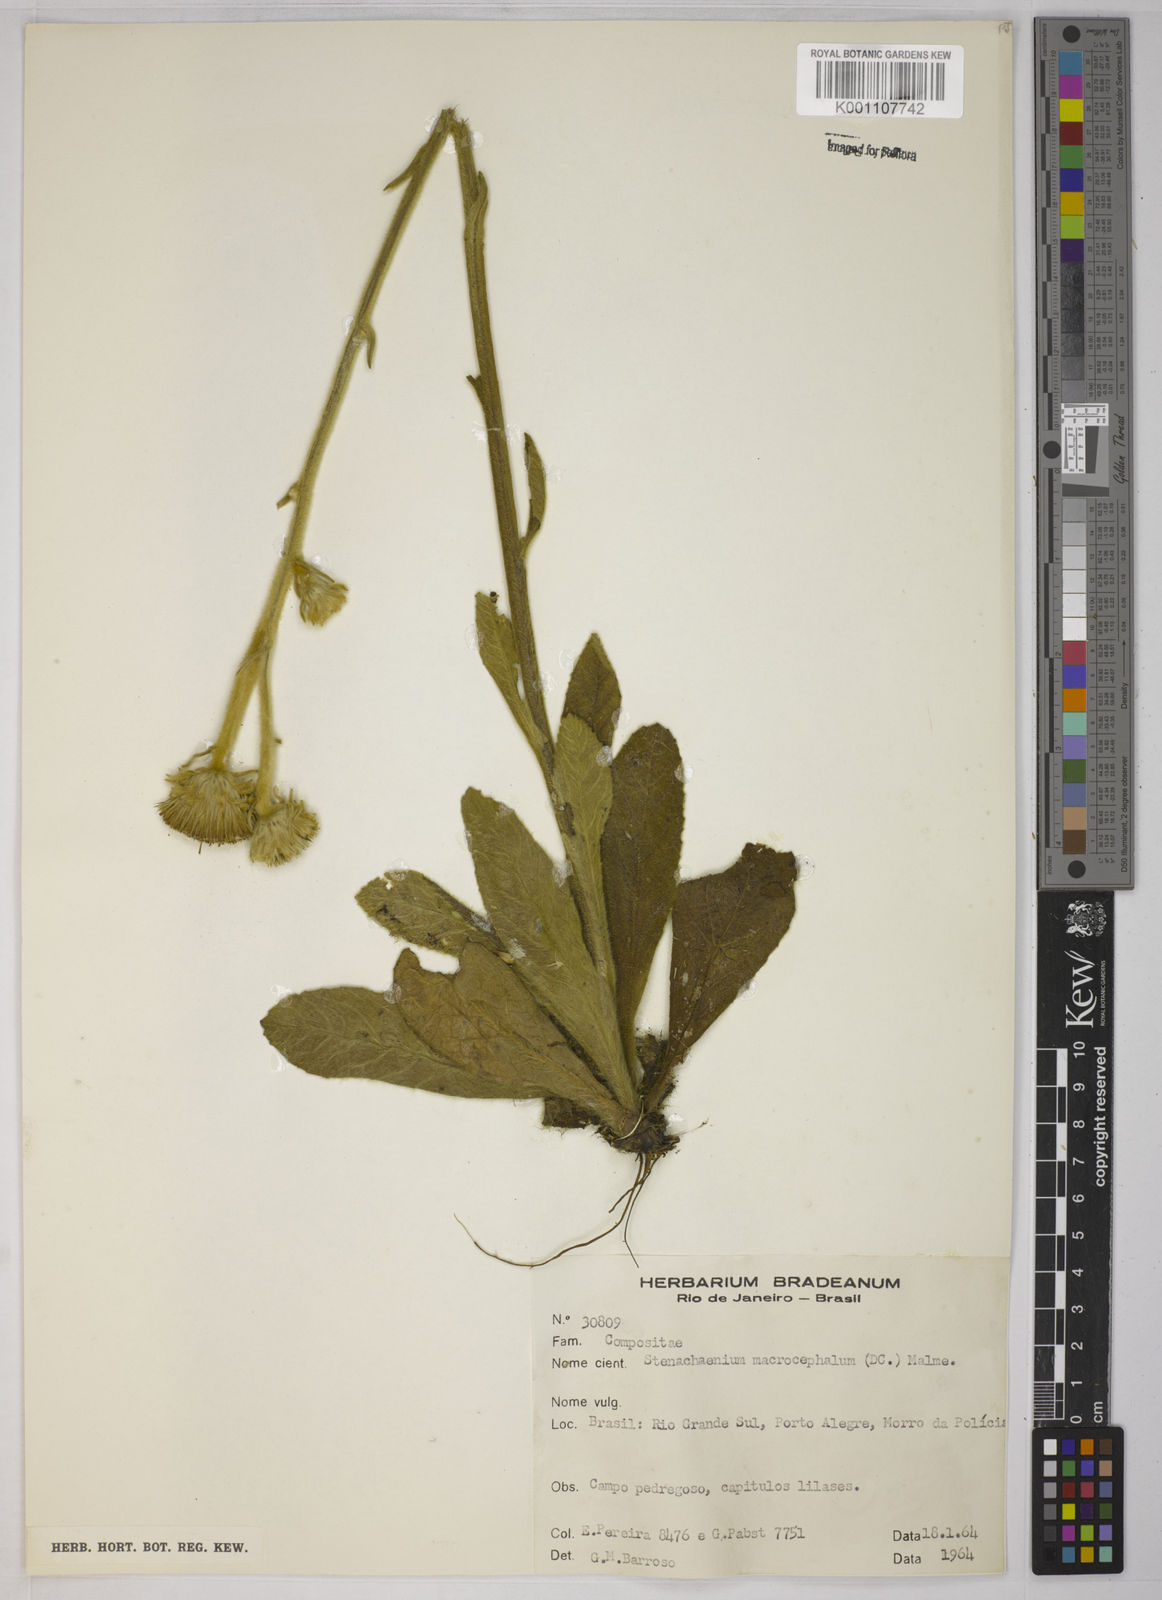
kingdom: Plantae
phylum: Tracheophyta
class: Magnoliopsida
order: Asterales
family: Asteraceae
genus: Stenachaenium
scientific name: Stenachaenium macrocephalum
